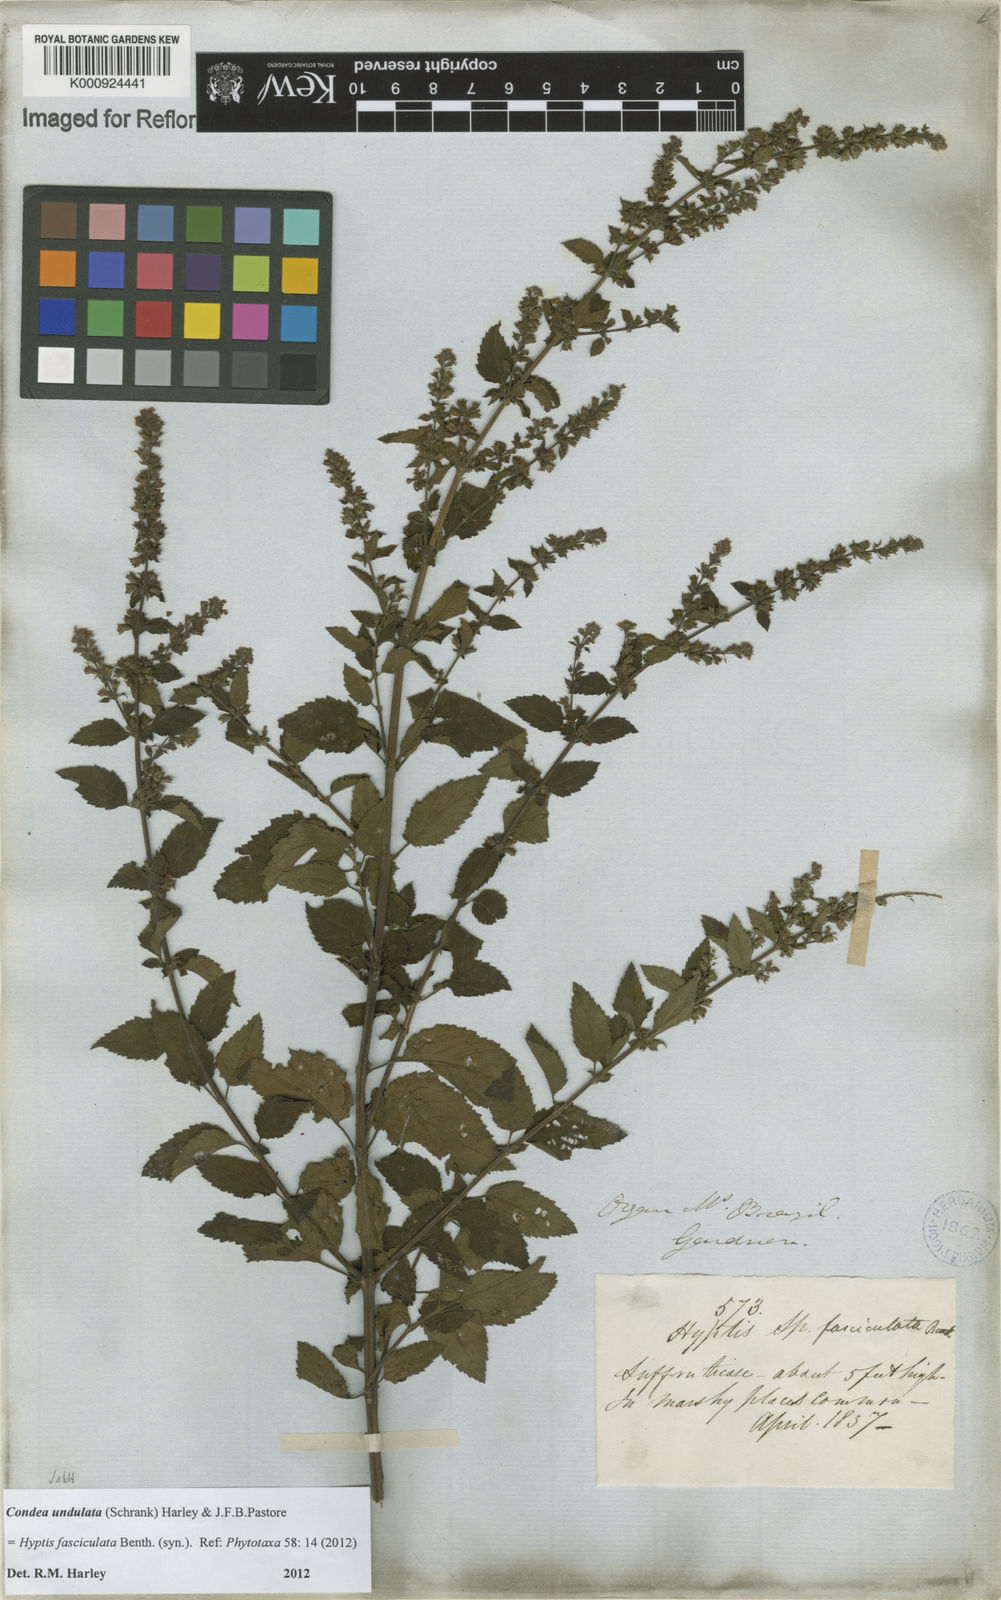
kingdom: Plantae
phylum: Tracheophyta
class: Magnoliopsida
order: Lamiales
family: Lamiaceae
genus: Condea
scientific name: Condea undulata
